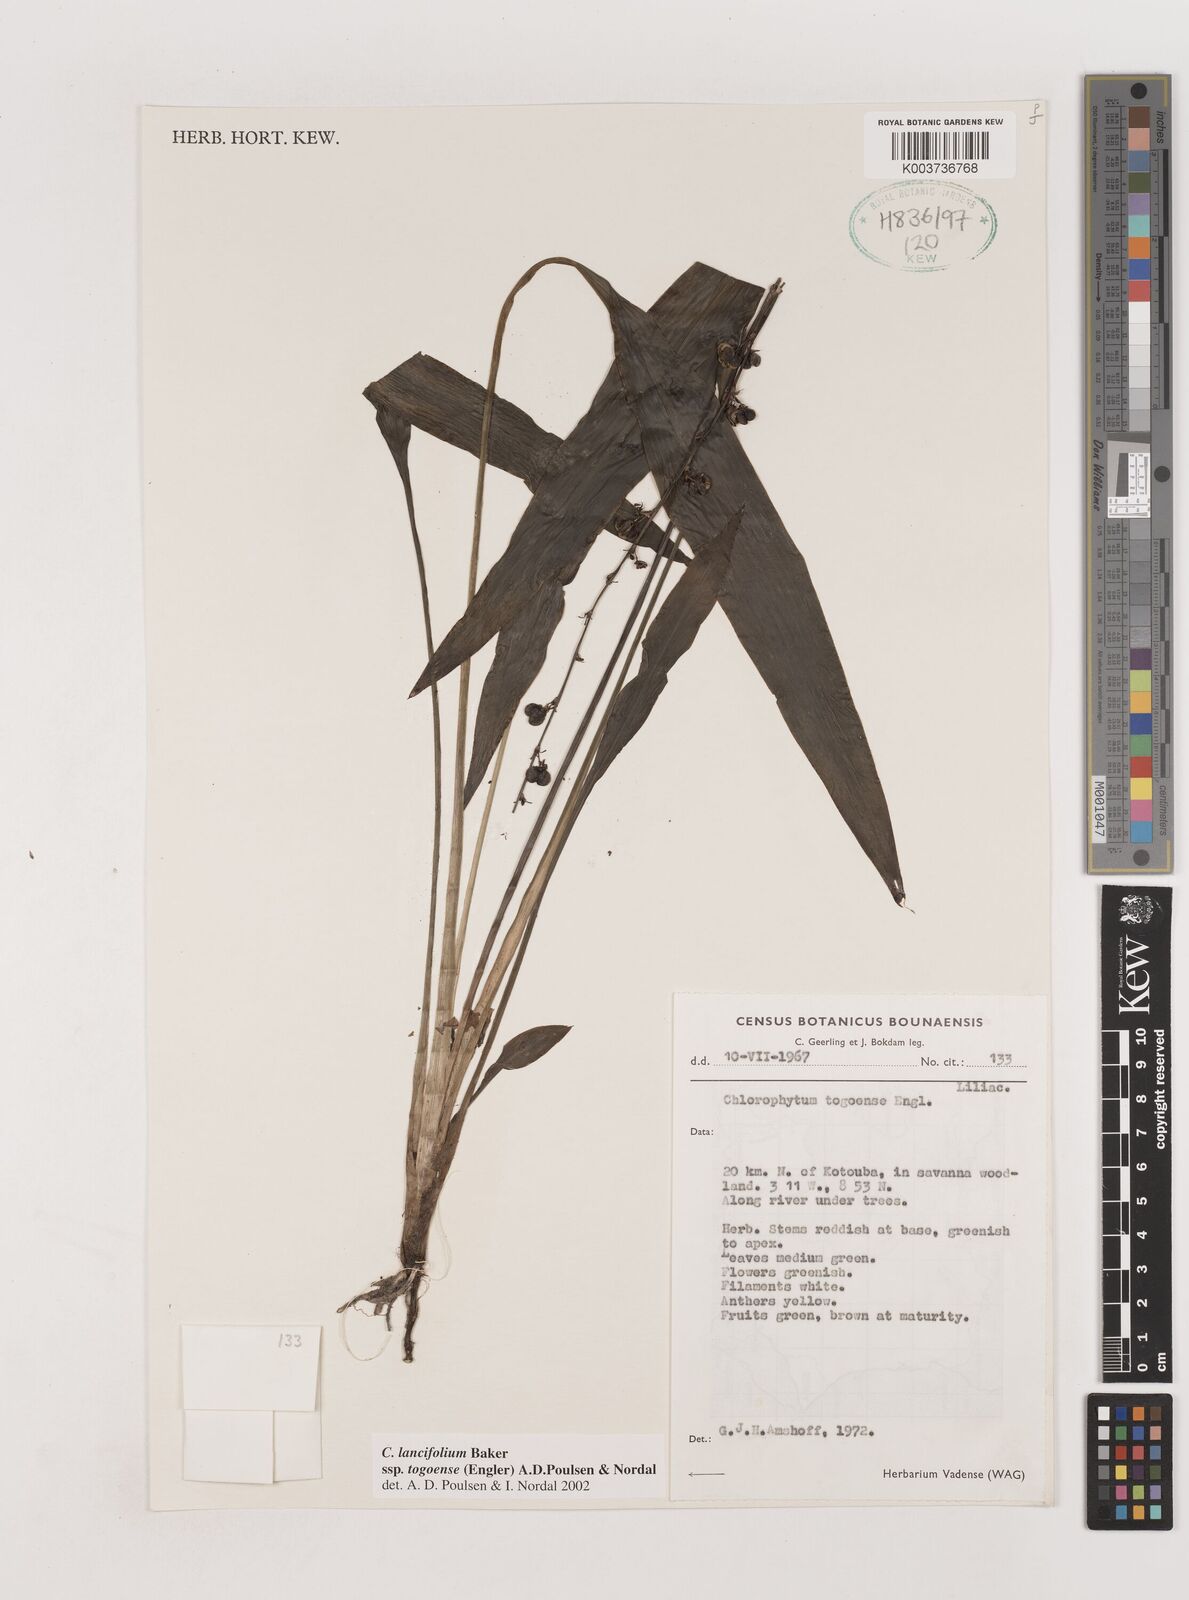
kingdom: Plantae
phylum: Tracheophyta
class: Liliopsida
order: Asparagales
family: Asparagaceae
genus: Chlorophytum
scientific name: Chlorophytum lancifolium
